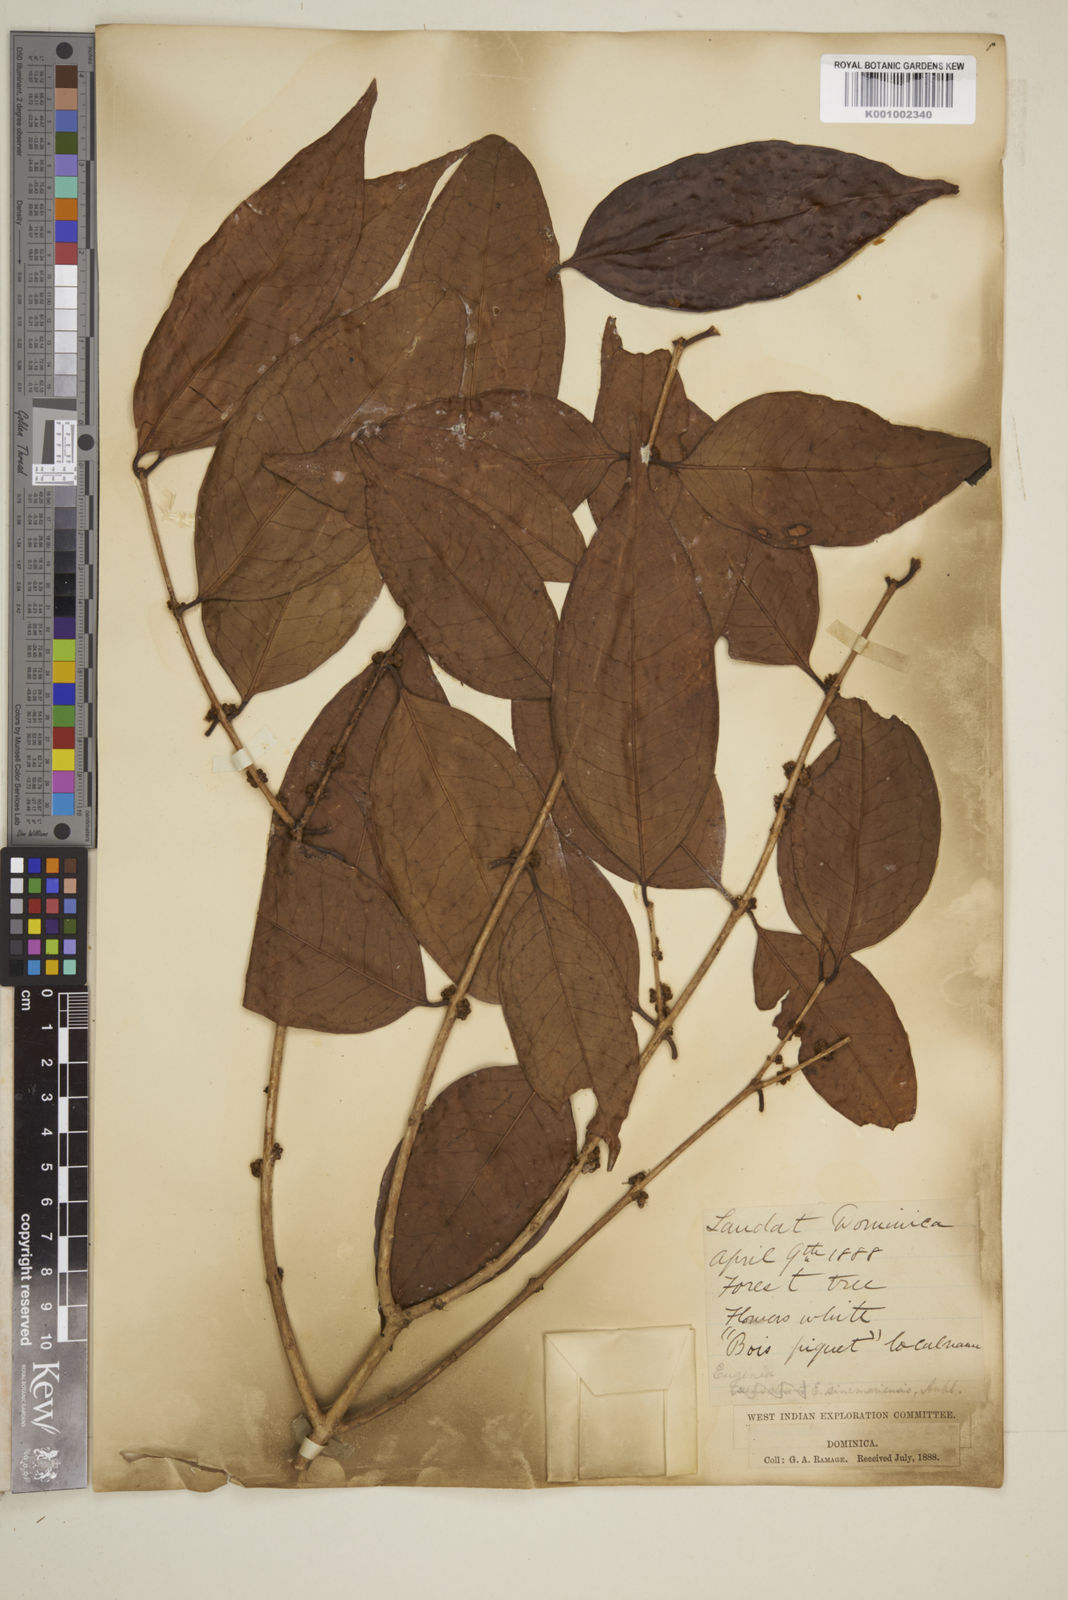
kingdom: Plantae
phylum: Tracheophyta
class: Magnoliopsida
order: Myrtales
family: Myrtaceae
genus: Eugenia
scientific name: Eugenia coffeifolia
